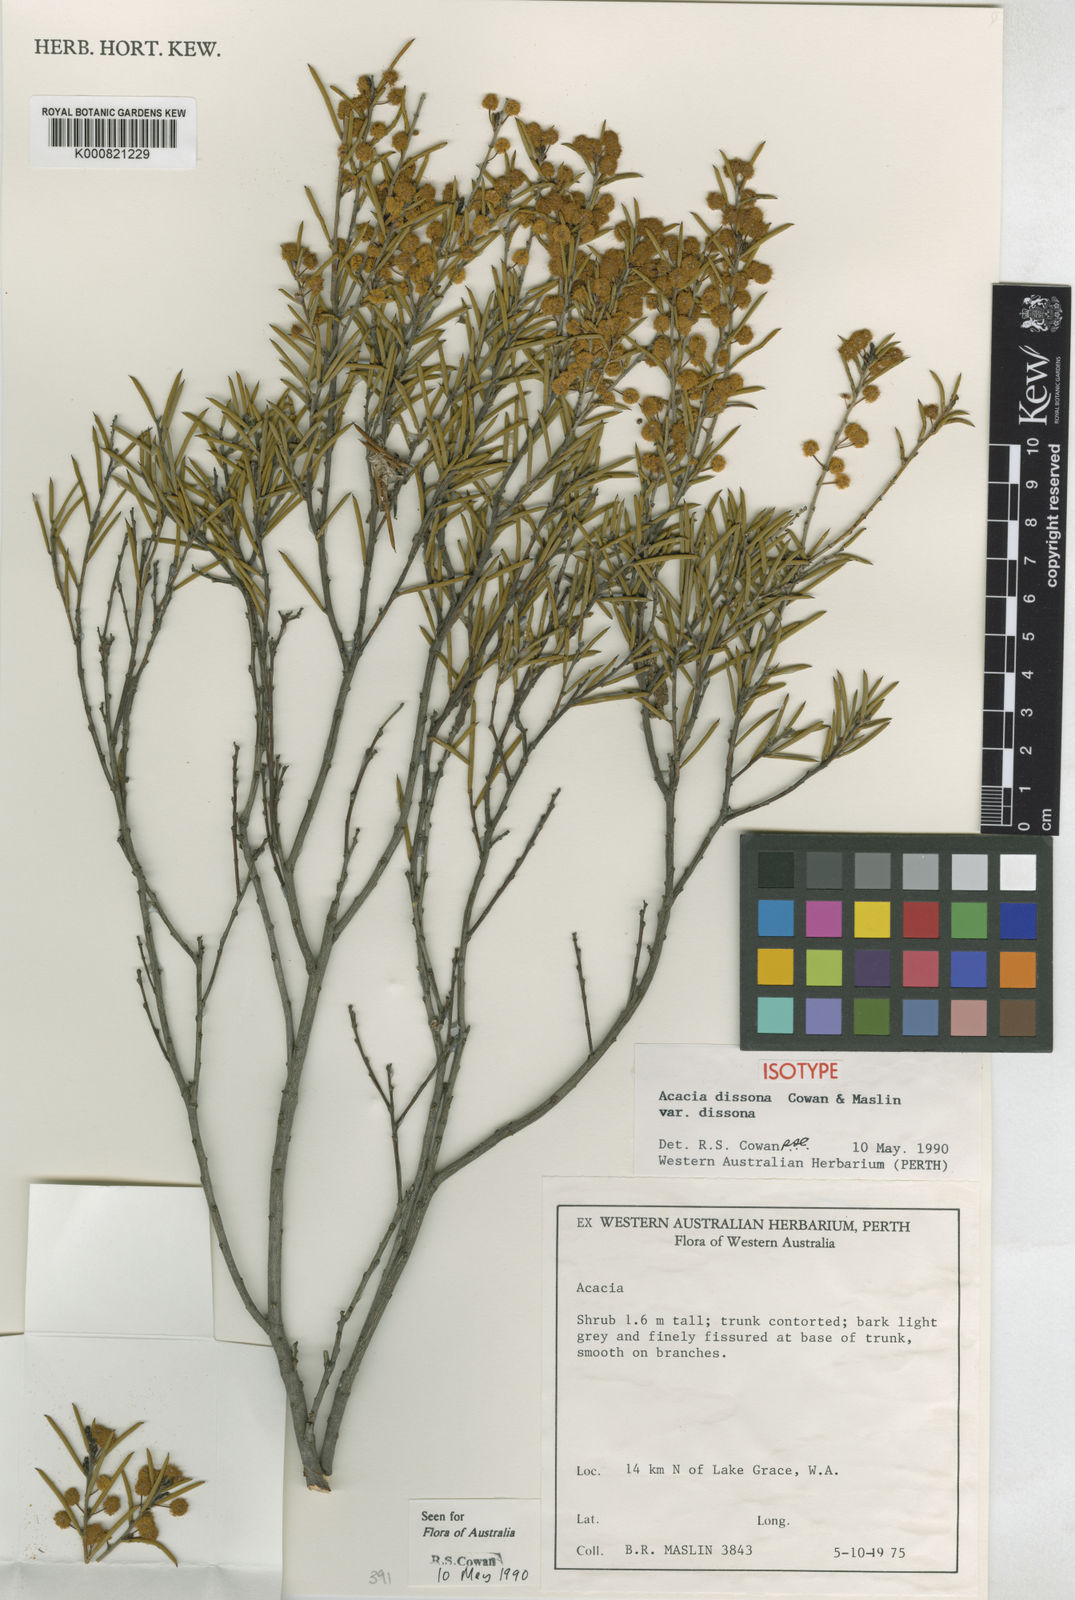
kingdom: Plantae
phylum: Tracheophyta
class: Magnoliopsida
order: Fabales
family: Fabaceae
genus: Acacia
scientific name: Acacia dissona
